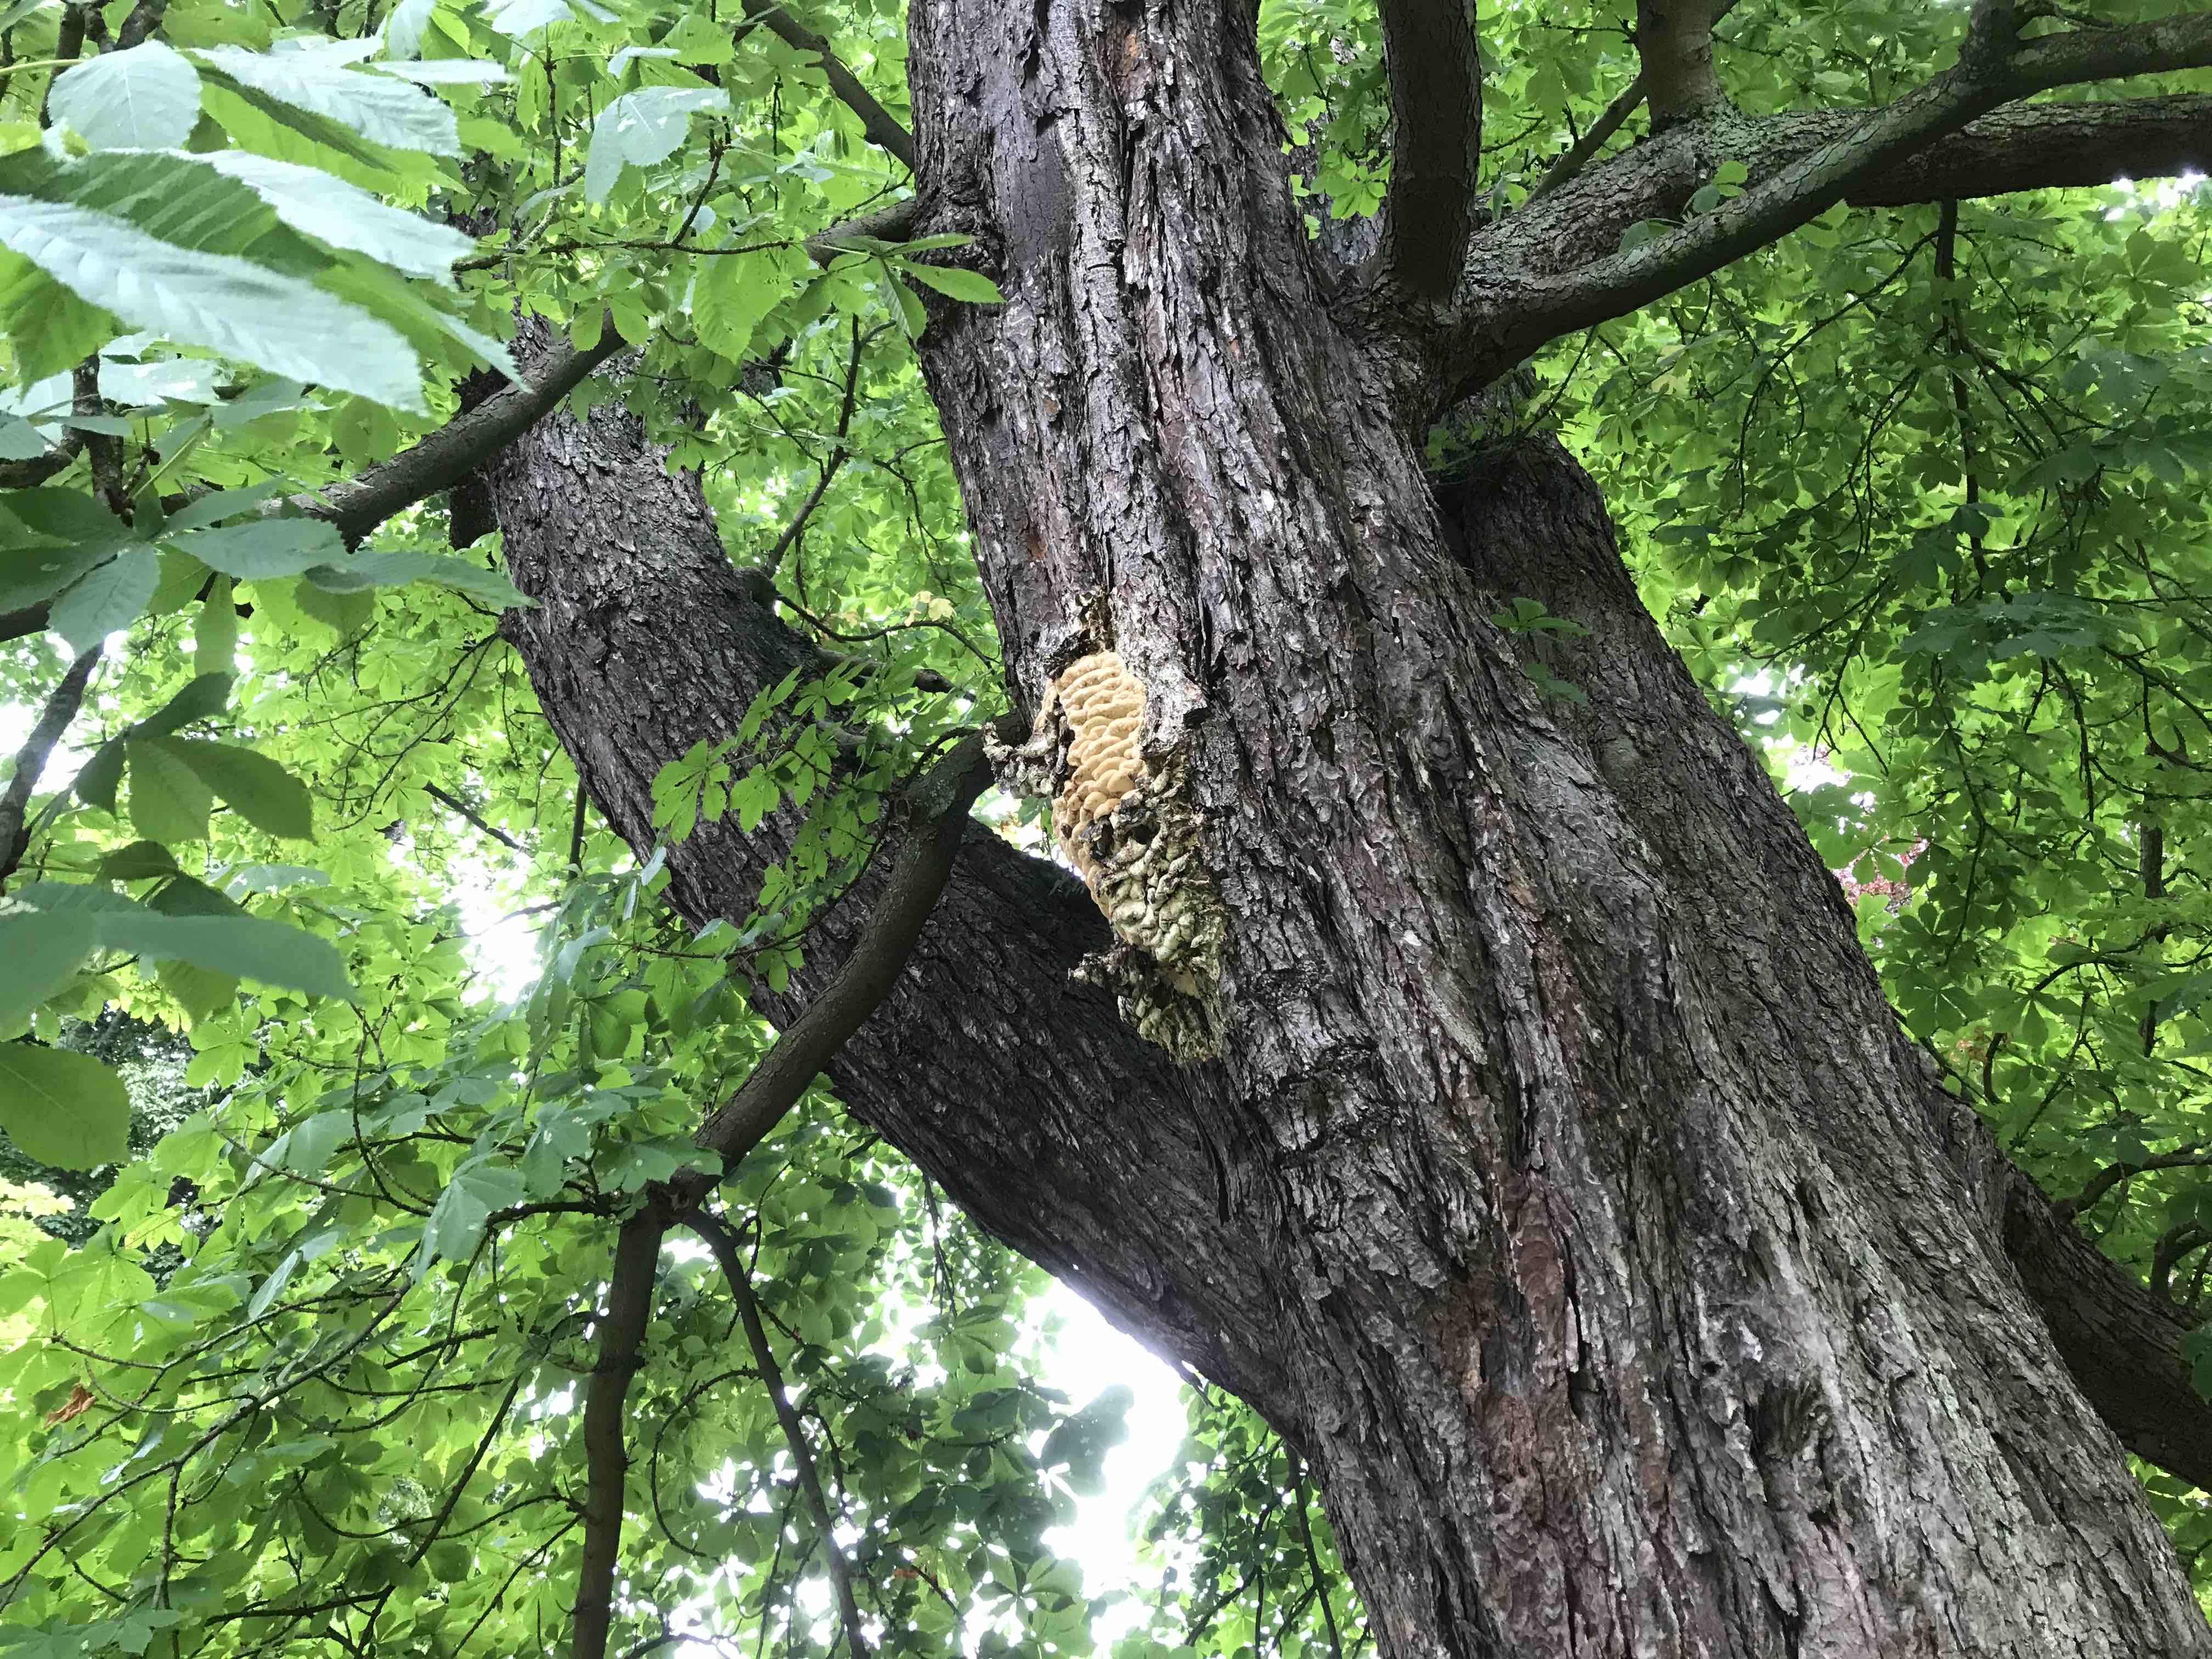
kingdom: Fungi
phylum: Basidiomycota
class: Agaricomycetes
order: Polyporales
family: Meruliaceae
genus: Climacodon
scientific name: Climacodon septentrionalis
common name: kæmpepigsvamp
